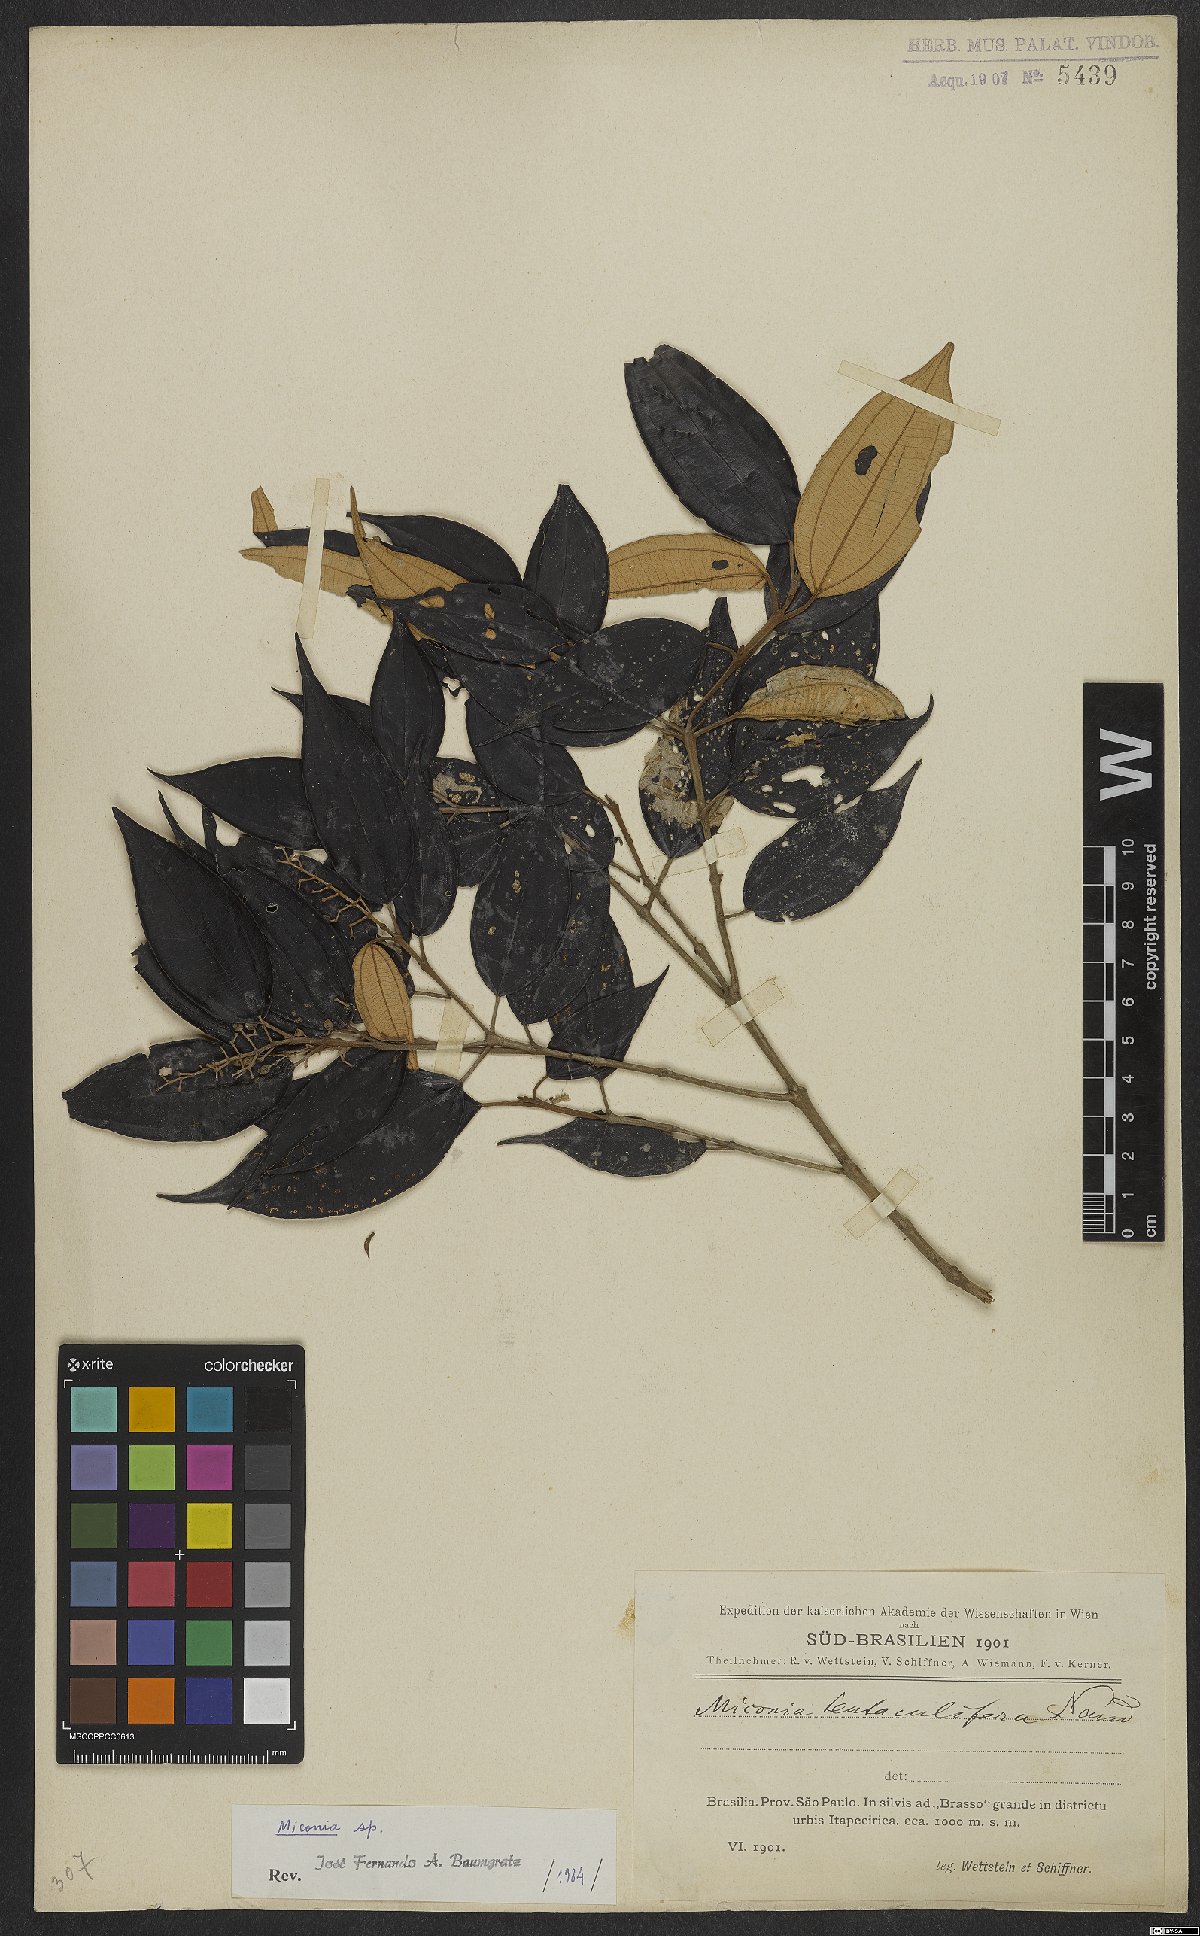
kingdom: Plantae
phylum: Tracheophyta
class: Magnoliopsida
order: Myrtales
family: Melastomataceae
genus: Miconia
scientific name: Miconia
